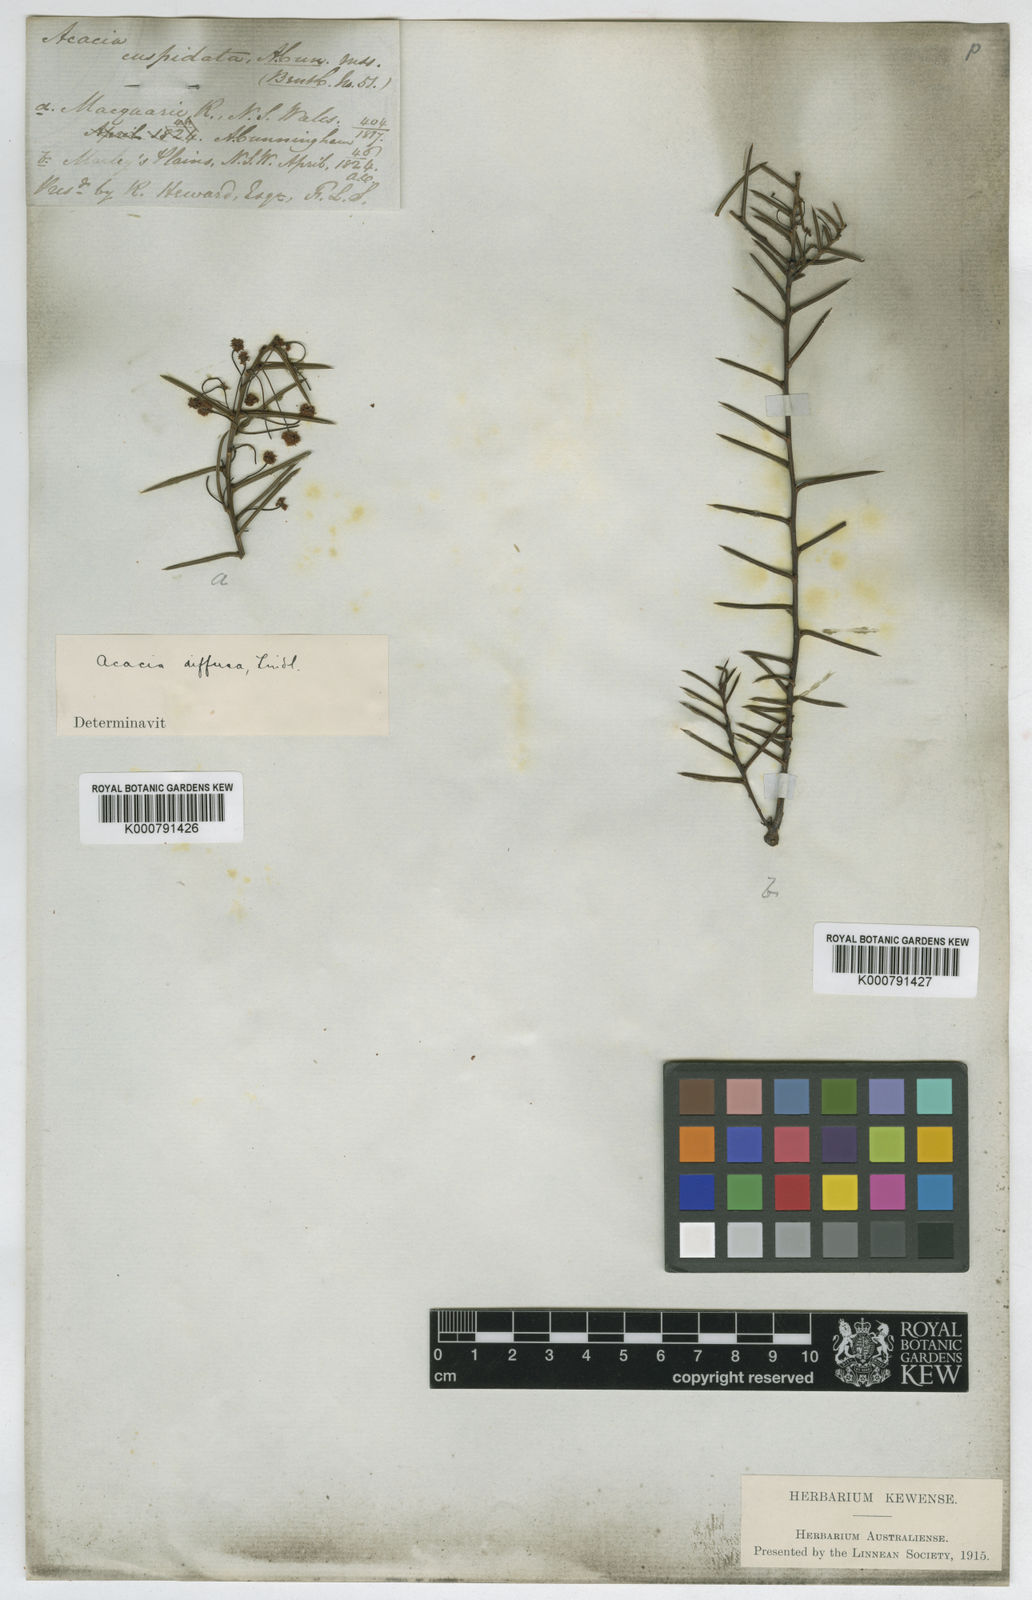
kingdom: Plantae
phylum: Tracheophyta
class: Magnoliopsida
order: Fabales
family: Fabaceae
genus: Acacia
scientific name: Acacia
